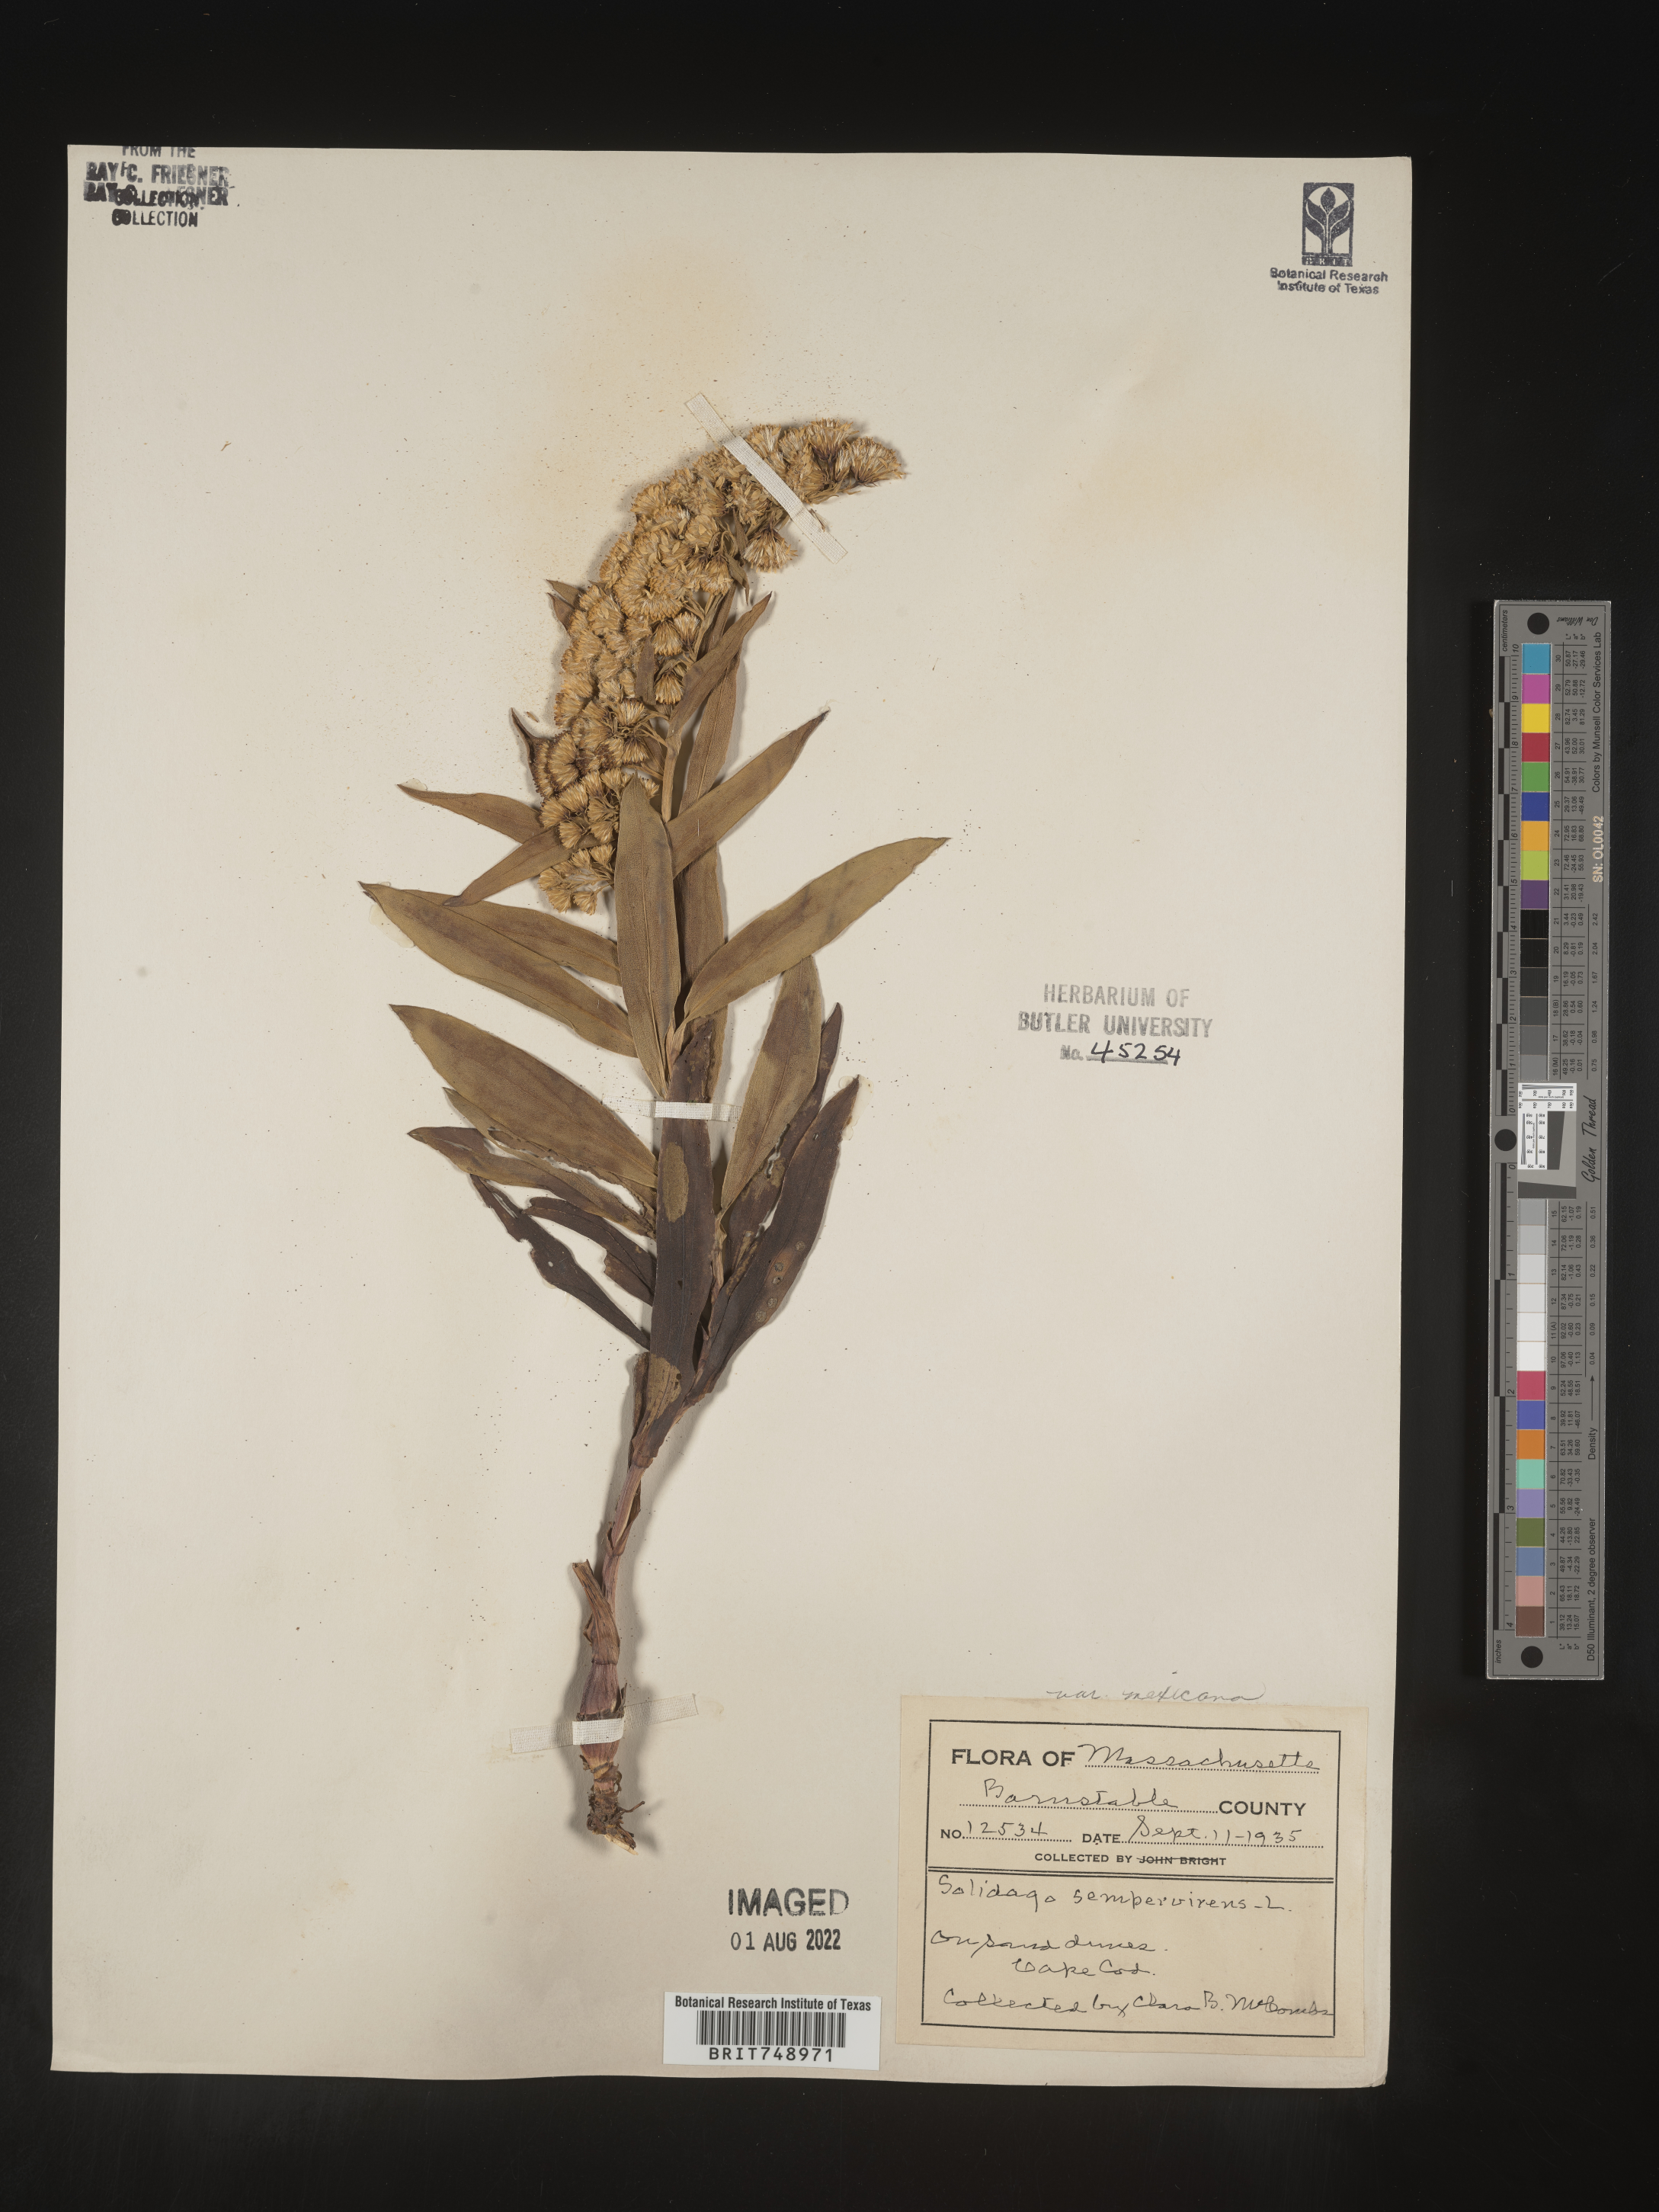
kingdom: Plantae
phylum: Tracheophyta
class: Magnoliopsida
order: Asterales
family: Asteraceae
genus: Solidago
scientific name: Solidago sempervirens
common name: Salt-marsh goldenrod
